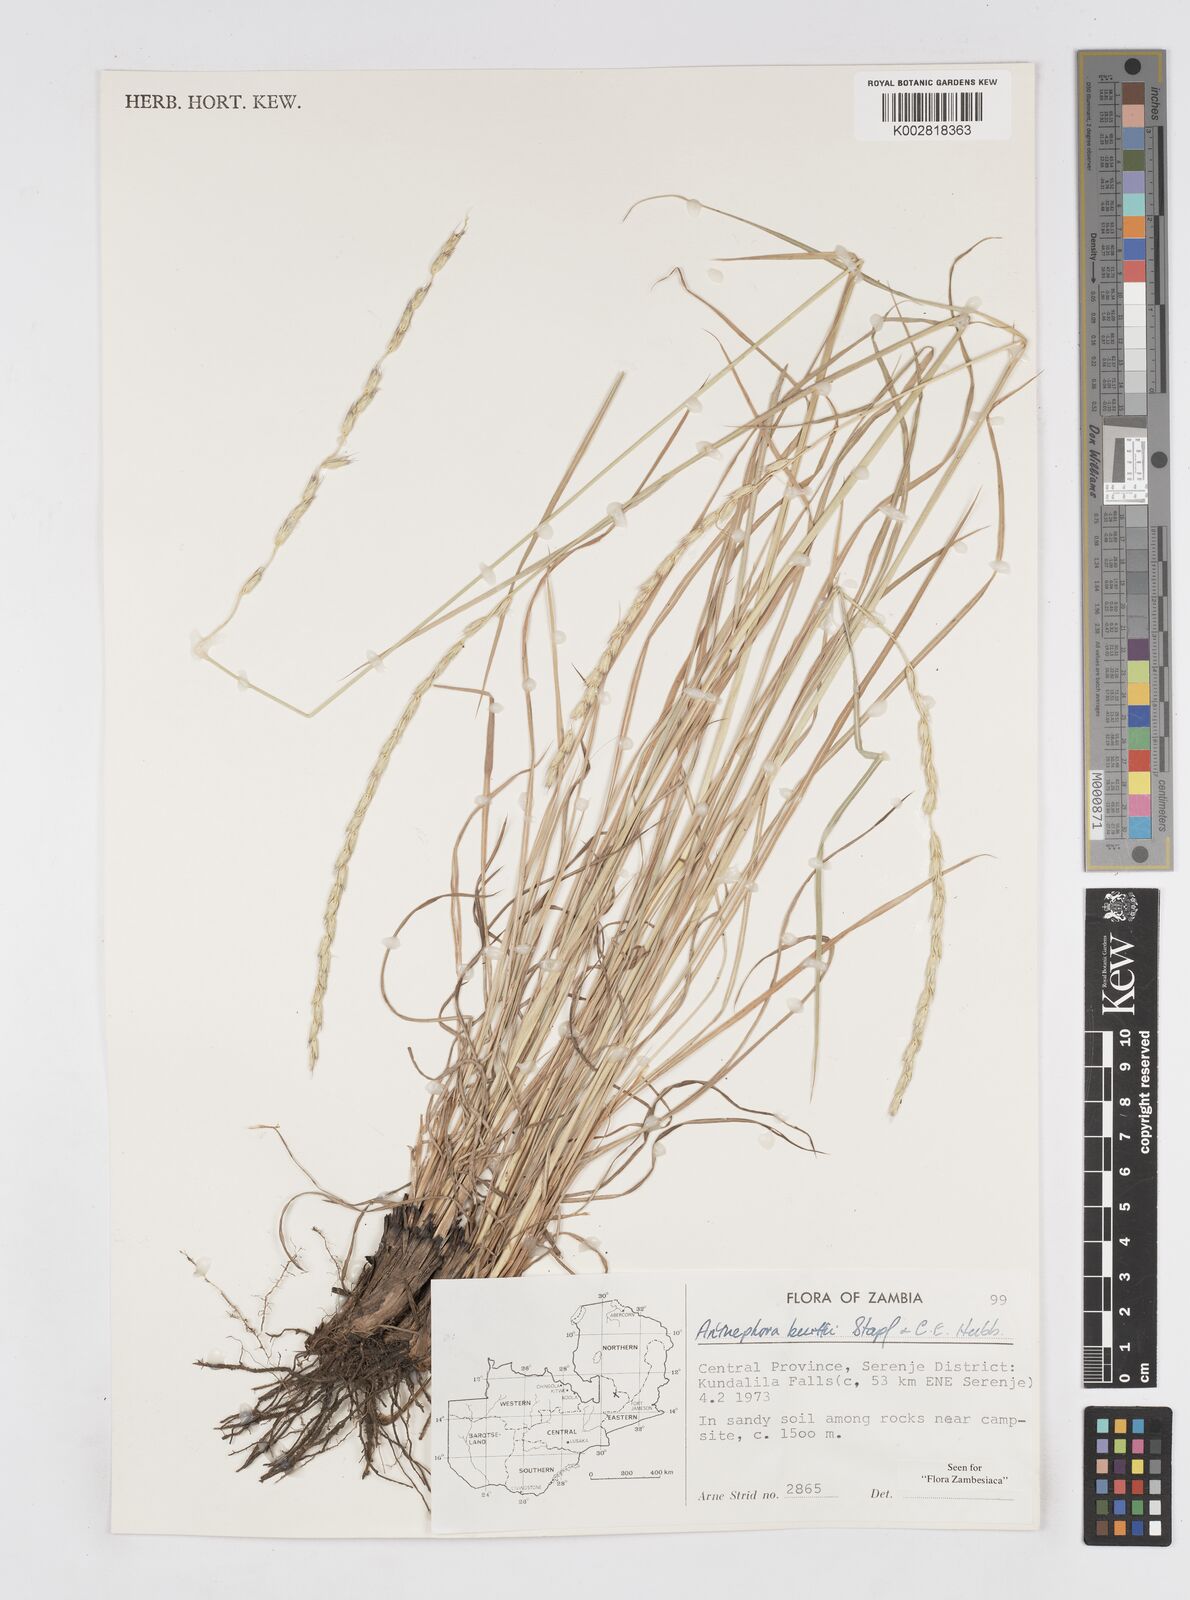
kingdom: Plantae
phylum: Tracheophyta
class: Liliopsida
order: Poales
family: Poaceae
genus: Anthephora
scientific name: Anthephora elongata
